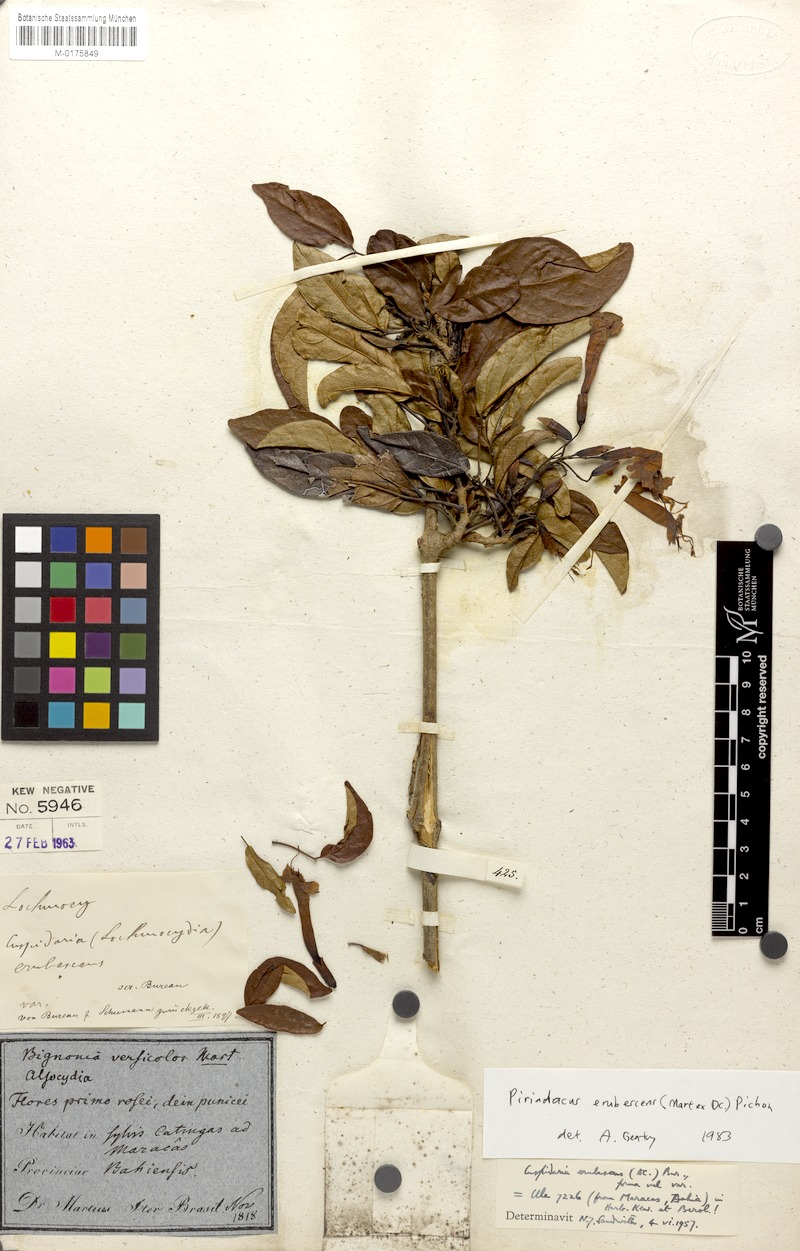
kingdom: Plantae
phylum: Tracheophyta
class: Magnoliopsida
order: Lamiales
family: Bignoniaceae
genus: Fridericia
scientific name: Fridericia erubescens
